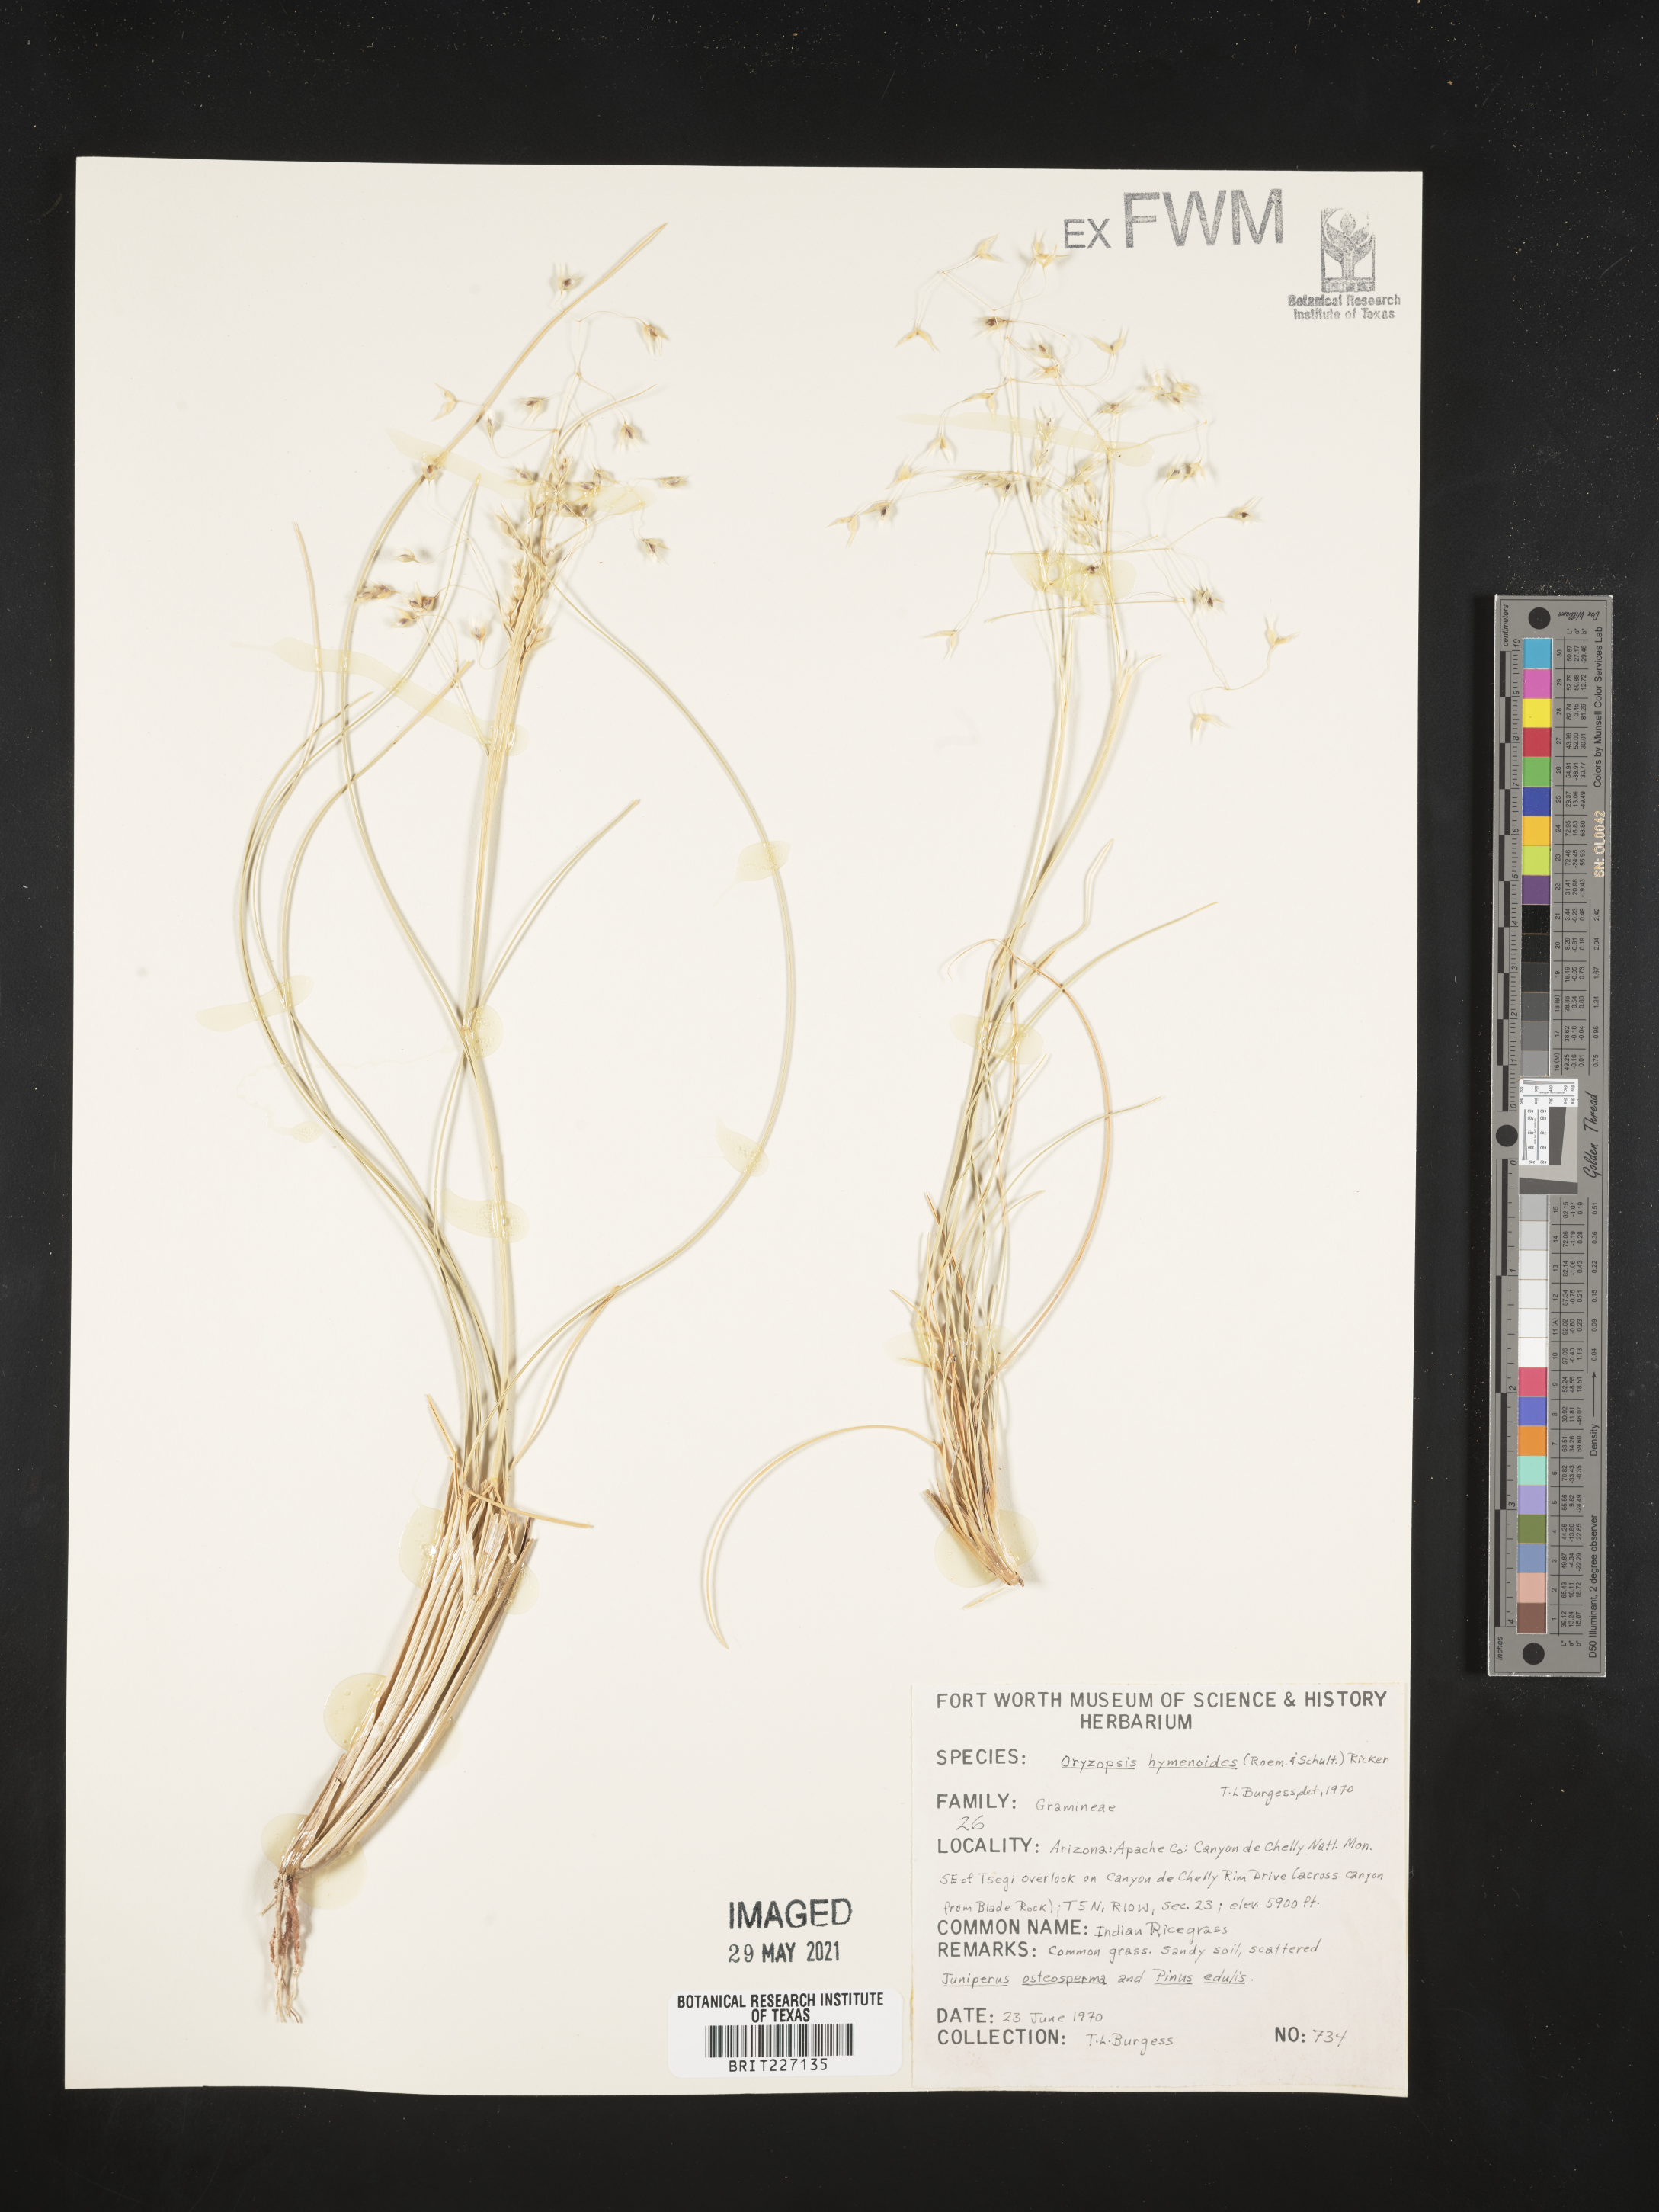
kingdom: Plantae
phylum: Tracheophyta
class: Liliopsida
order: Poales
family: Poaceae
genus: Eriocoma
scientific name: Eriocoma hymenoides
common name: Indian mountain ricegrass
